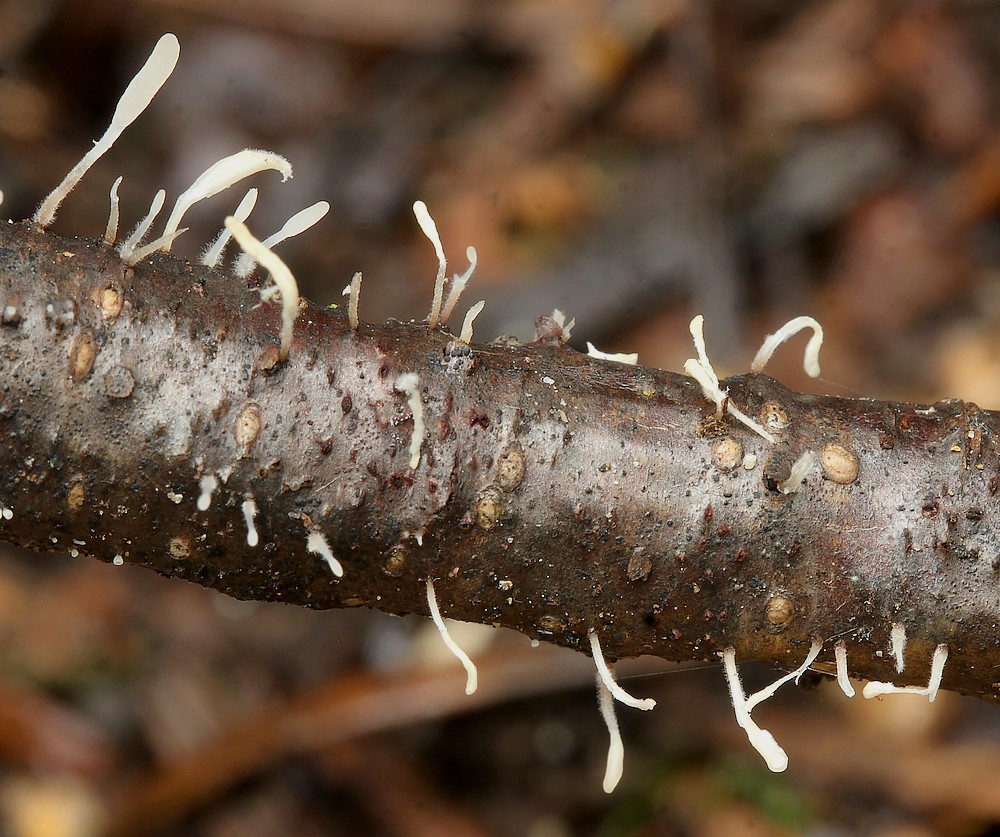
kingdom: Fungi
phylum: Basidiomycota
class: Agaricomycetes
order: Agaricales
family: Typhulaceae
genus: Typhula
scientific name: Typhula spathulata
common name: aske-trådkølle
